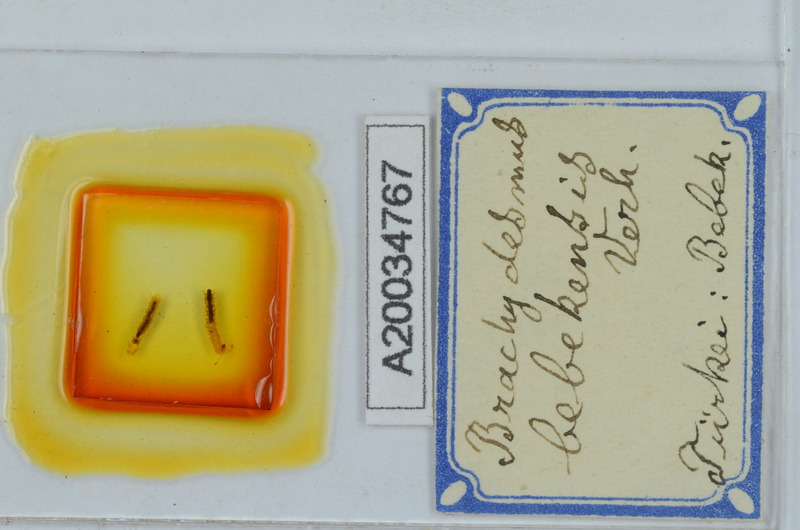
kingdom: Animalia
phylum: Arthropoda
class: Diplopoda
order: Polydesmida
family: Polydesmidae
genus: Brachydesmus
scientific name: Brachydesmus bebekensis
